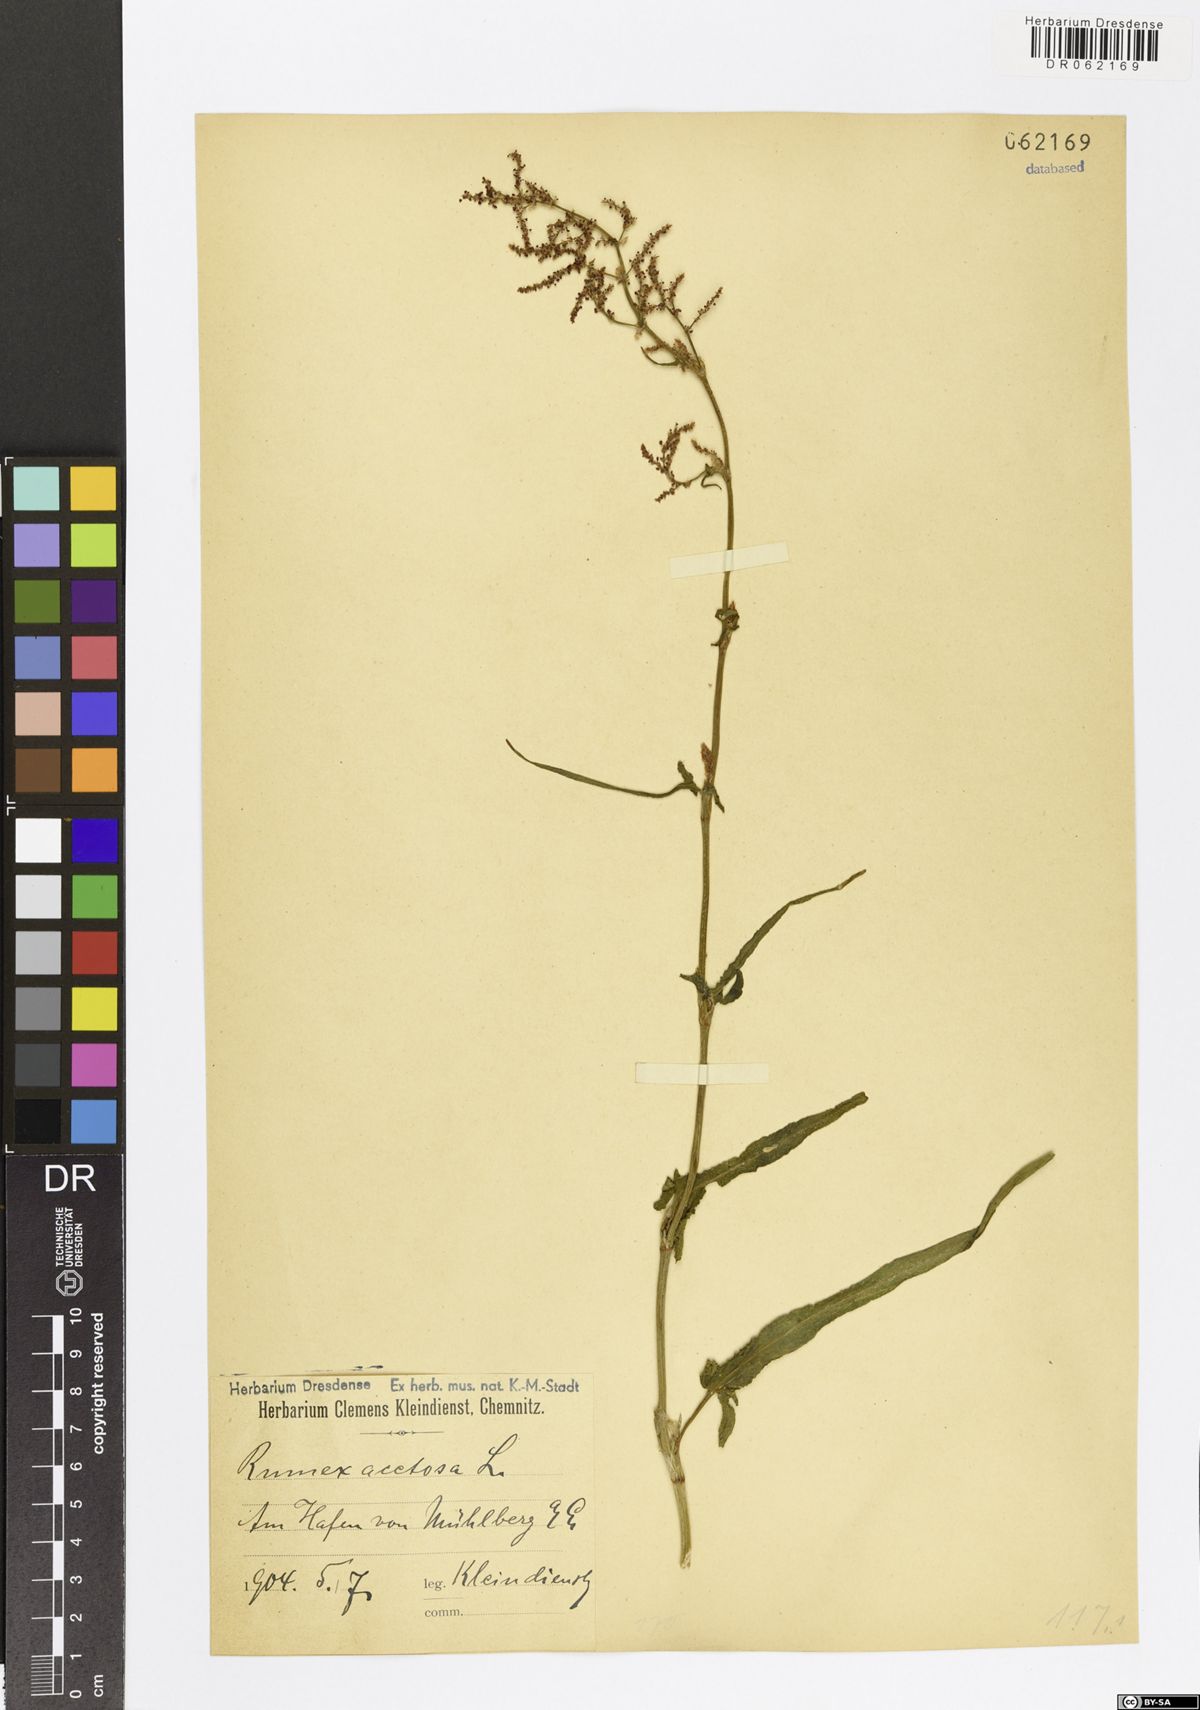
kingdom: Plantae
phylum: Tracheophyta
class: Magnoliopsida
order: Caryophyllales
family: Polygonaceae
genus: Rumex
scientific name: Rumex acetosa
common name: Garden sorrel
